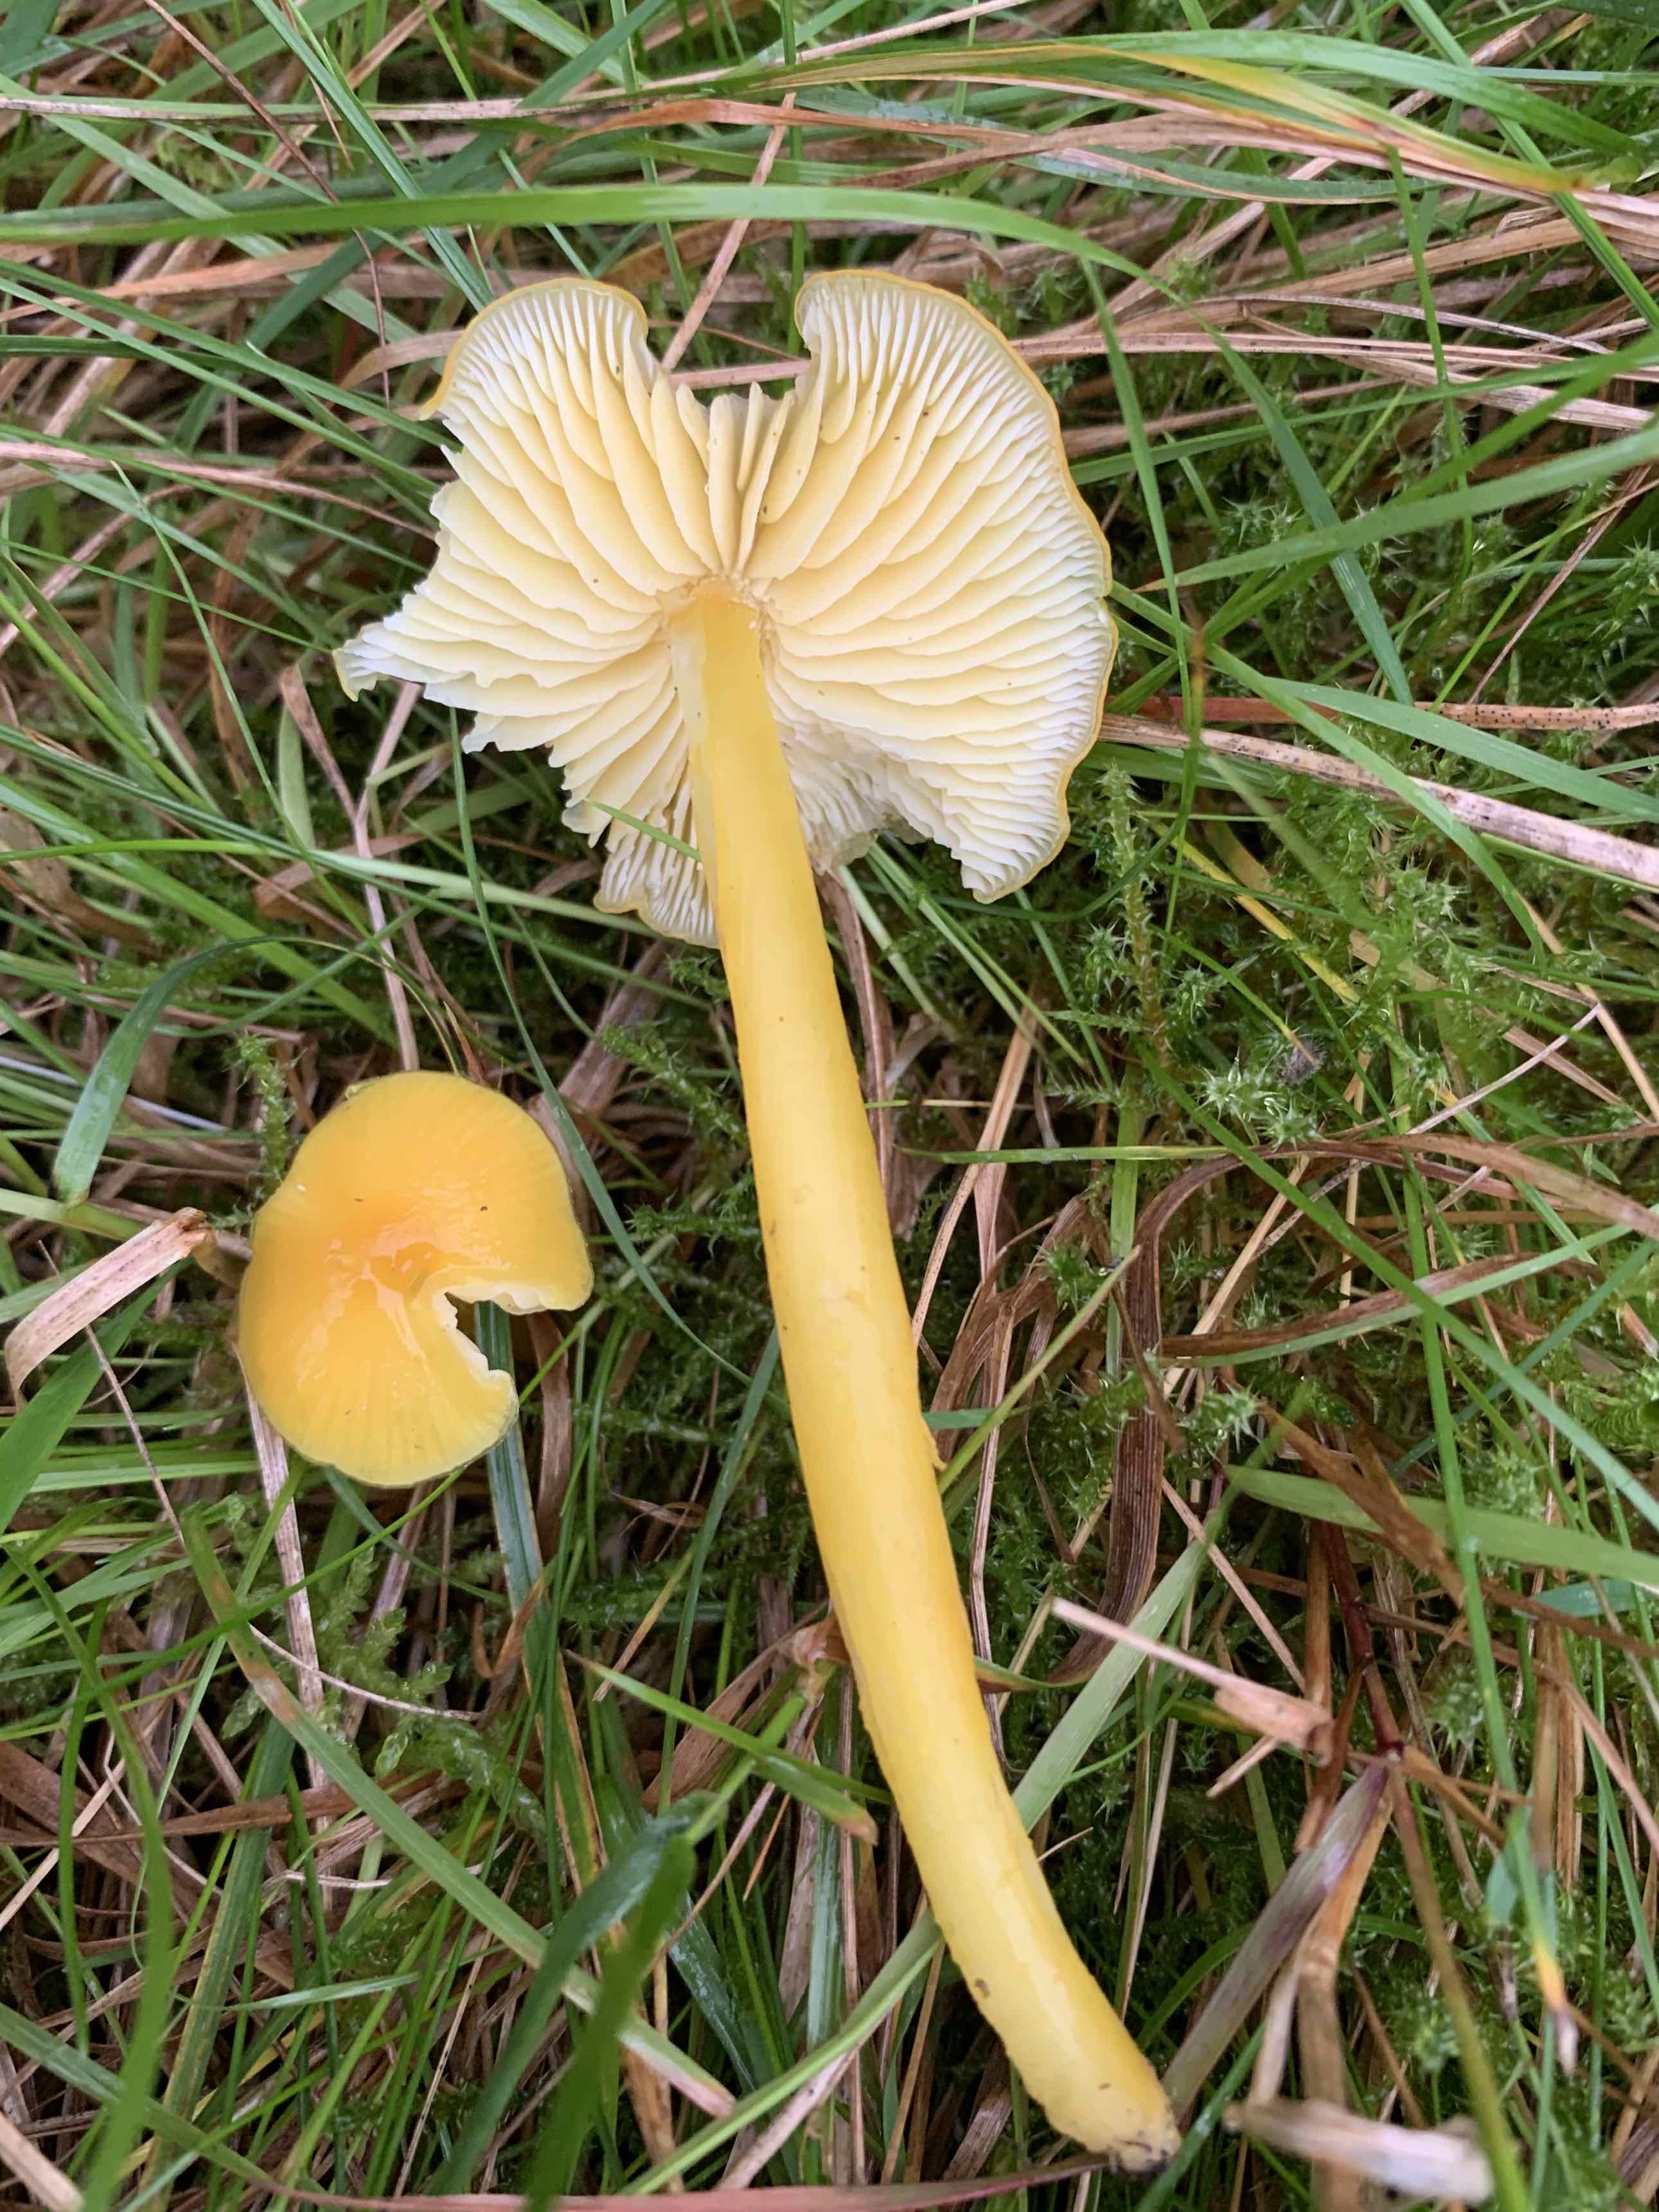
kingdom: Fungi
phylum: Basidiomycota
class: Agaricomycetes
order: Agaricales
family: Hygrophoraceae
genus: Hygrocybe
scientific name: Hygrocybe chlorophana
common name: gul vokshat
